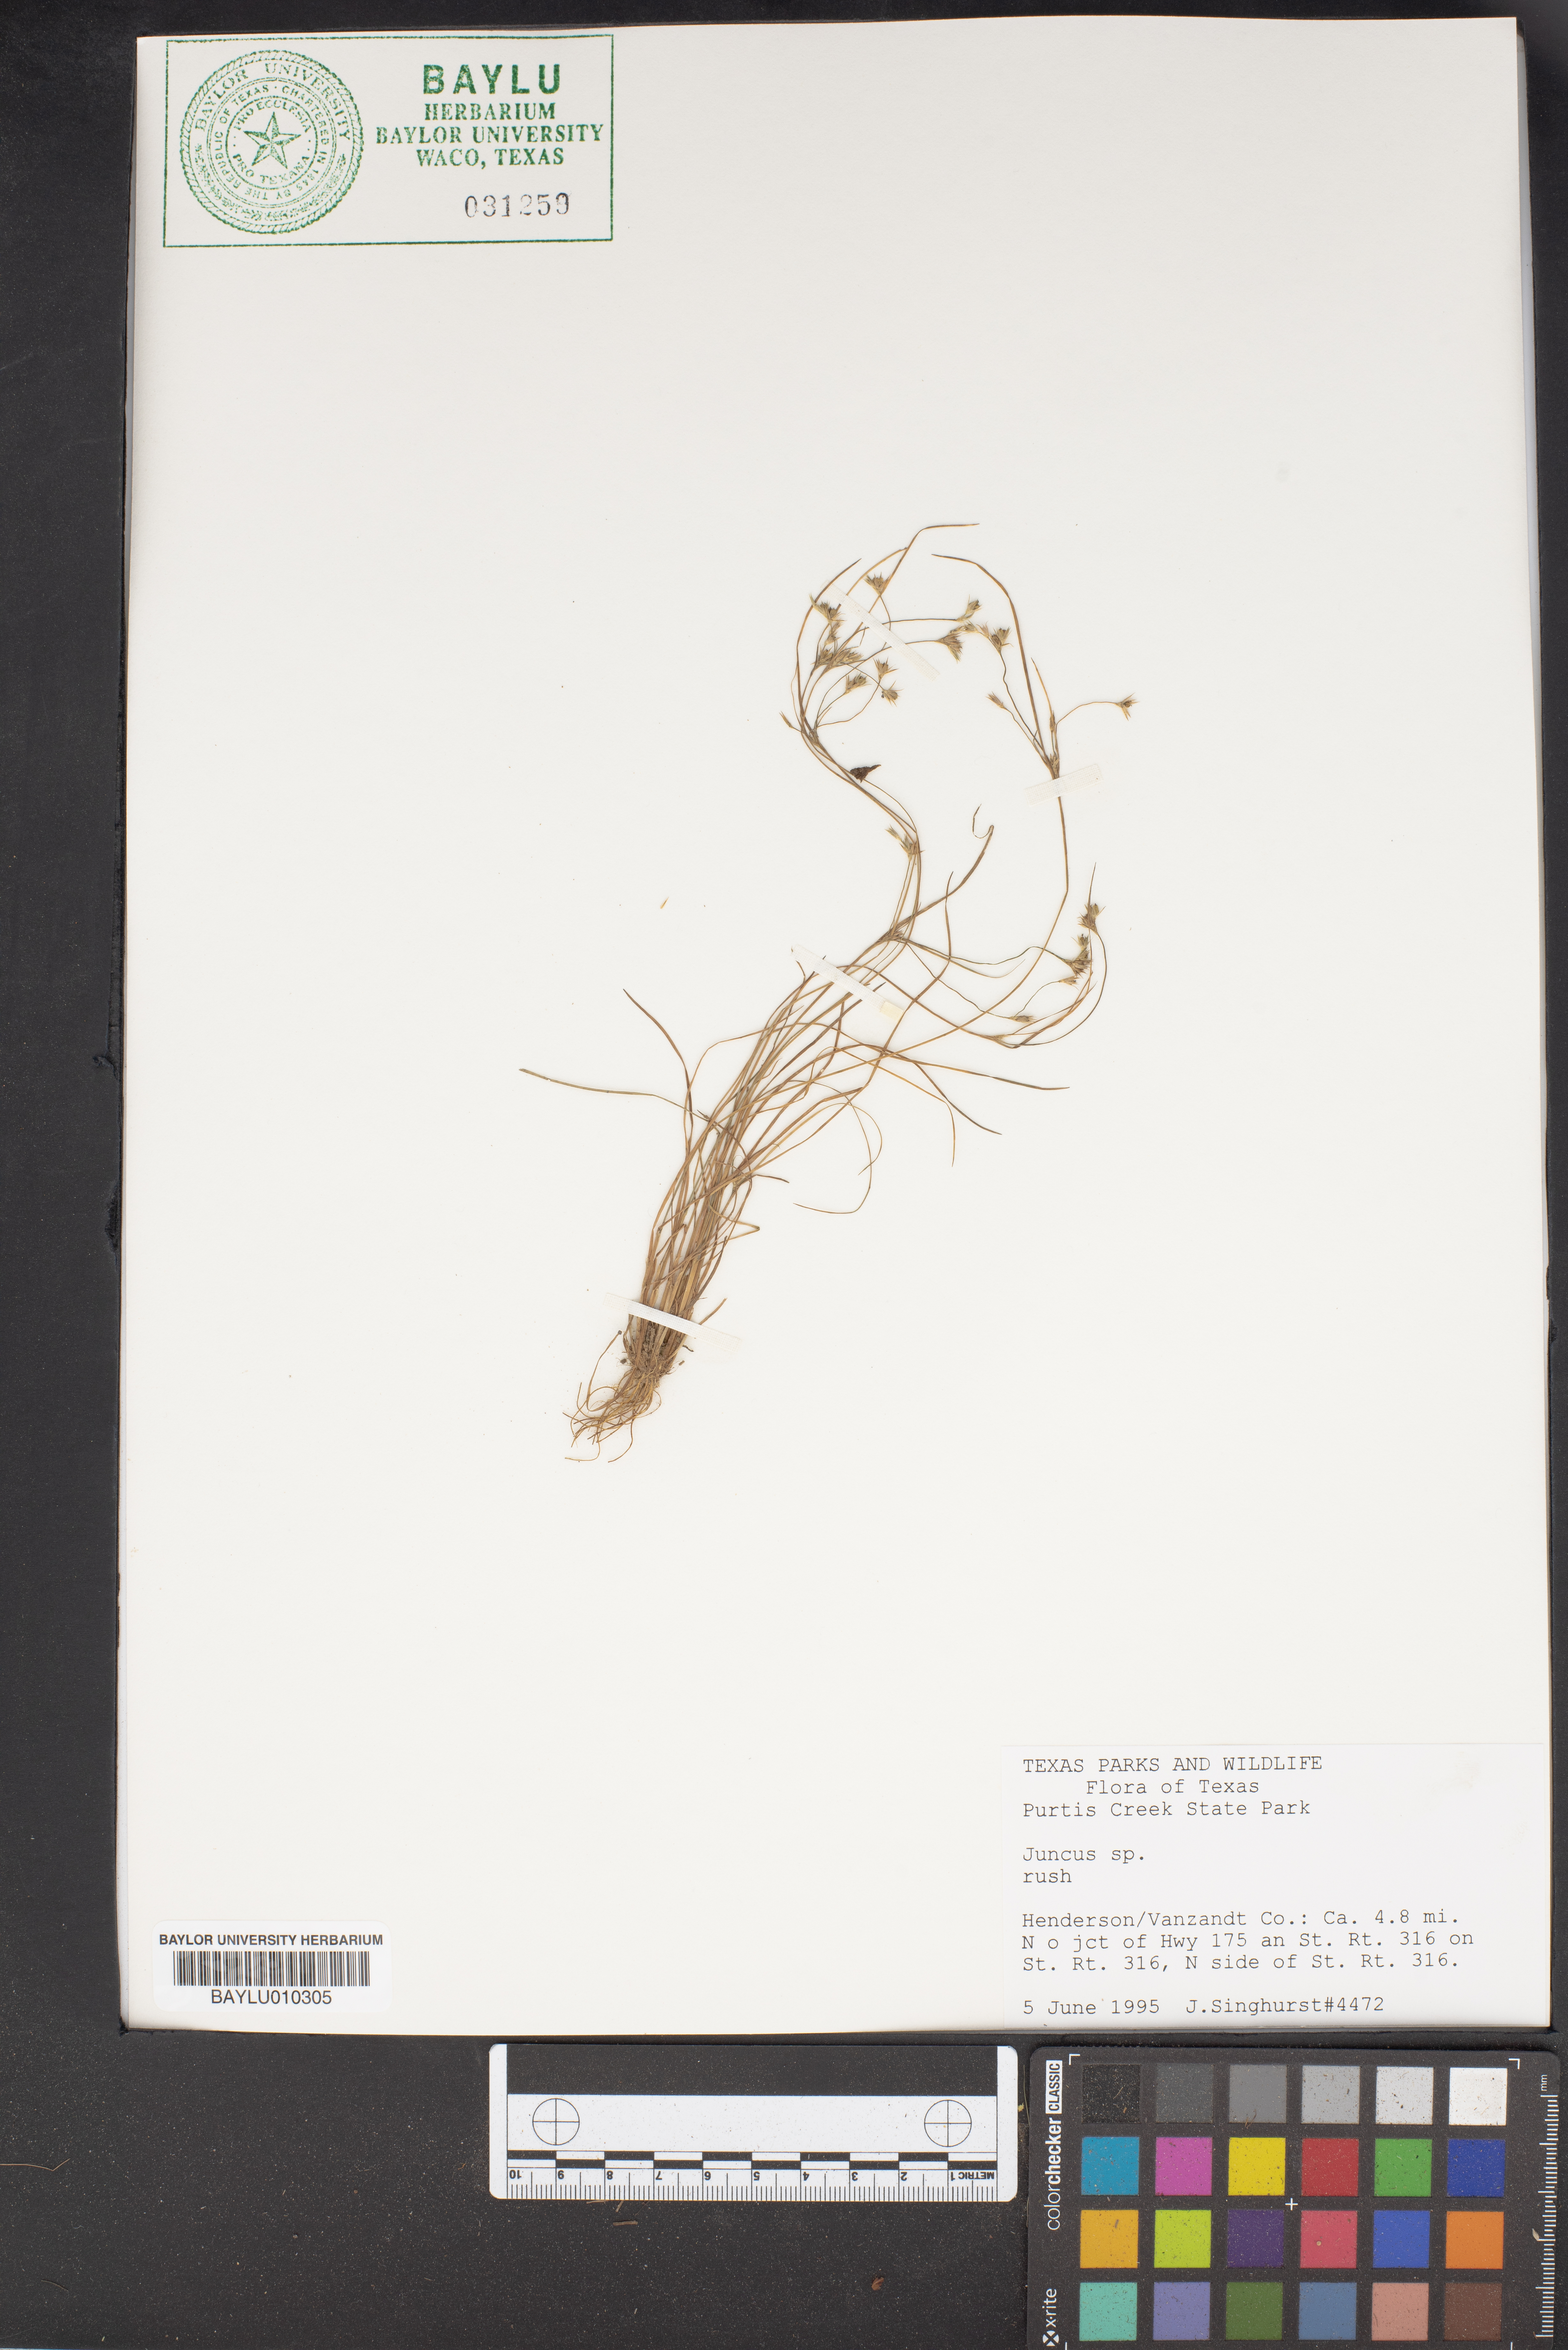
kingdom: Plantae
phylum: Tracheophyta
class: Liliopsida
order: Poales
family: Juncaceae
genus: Juncus
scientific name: Juncus
